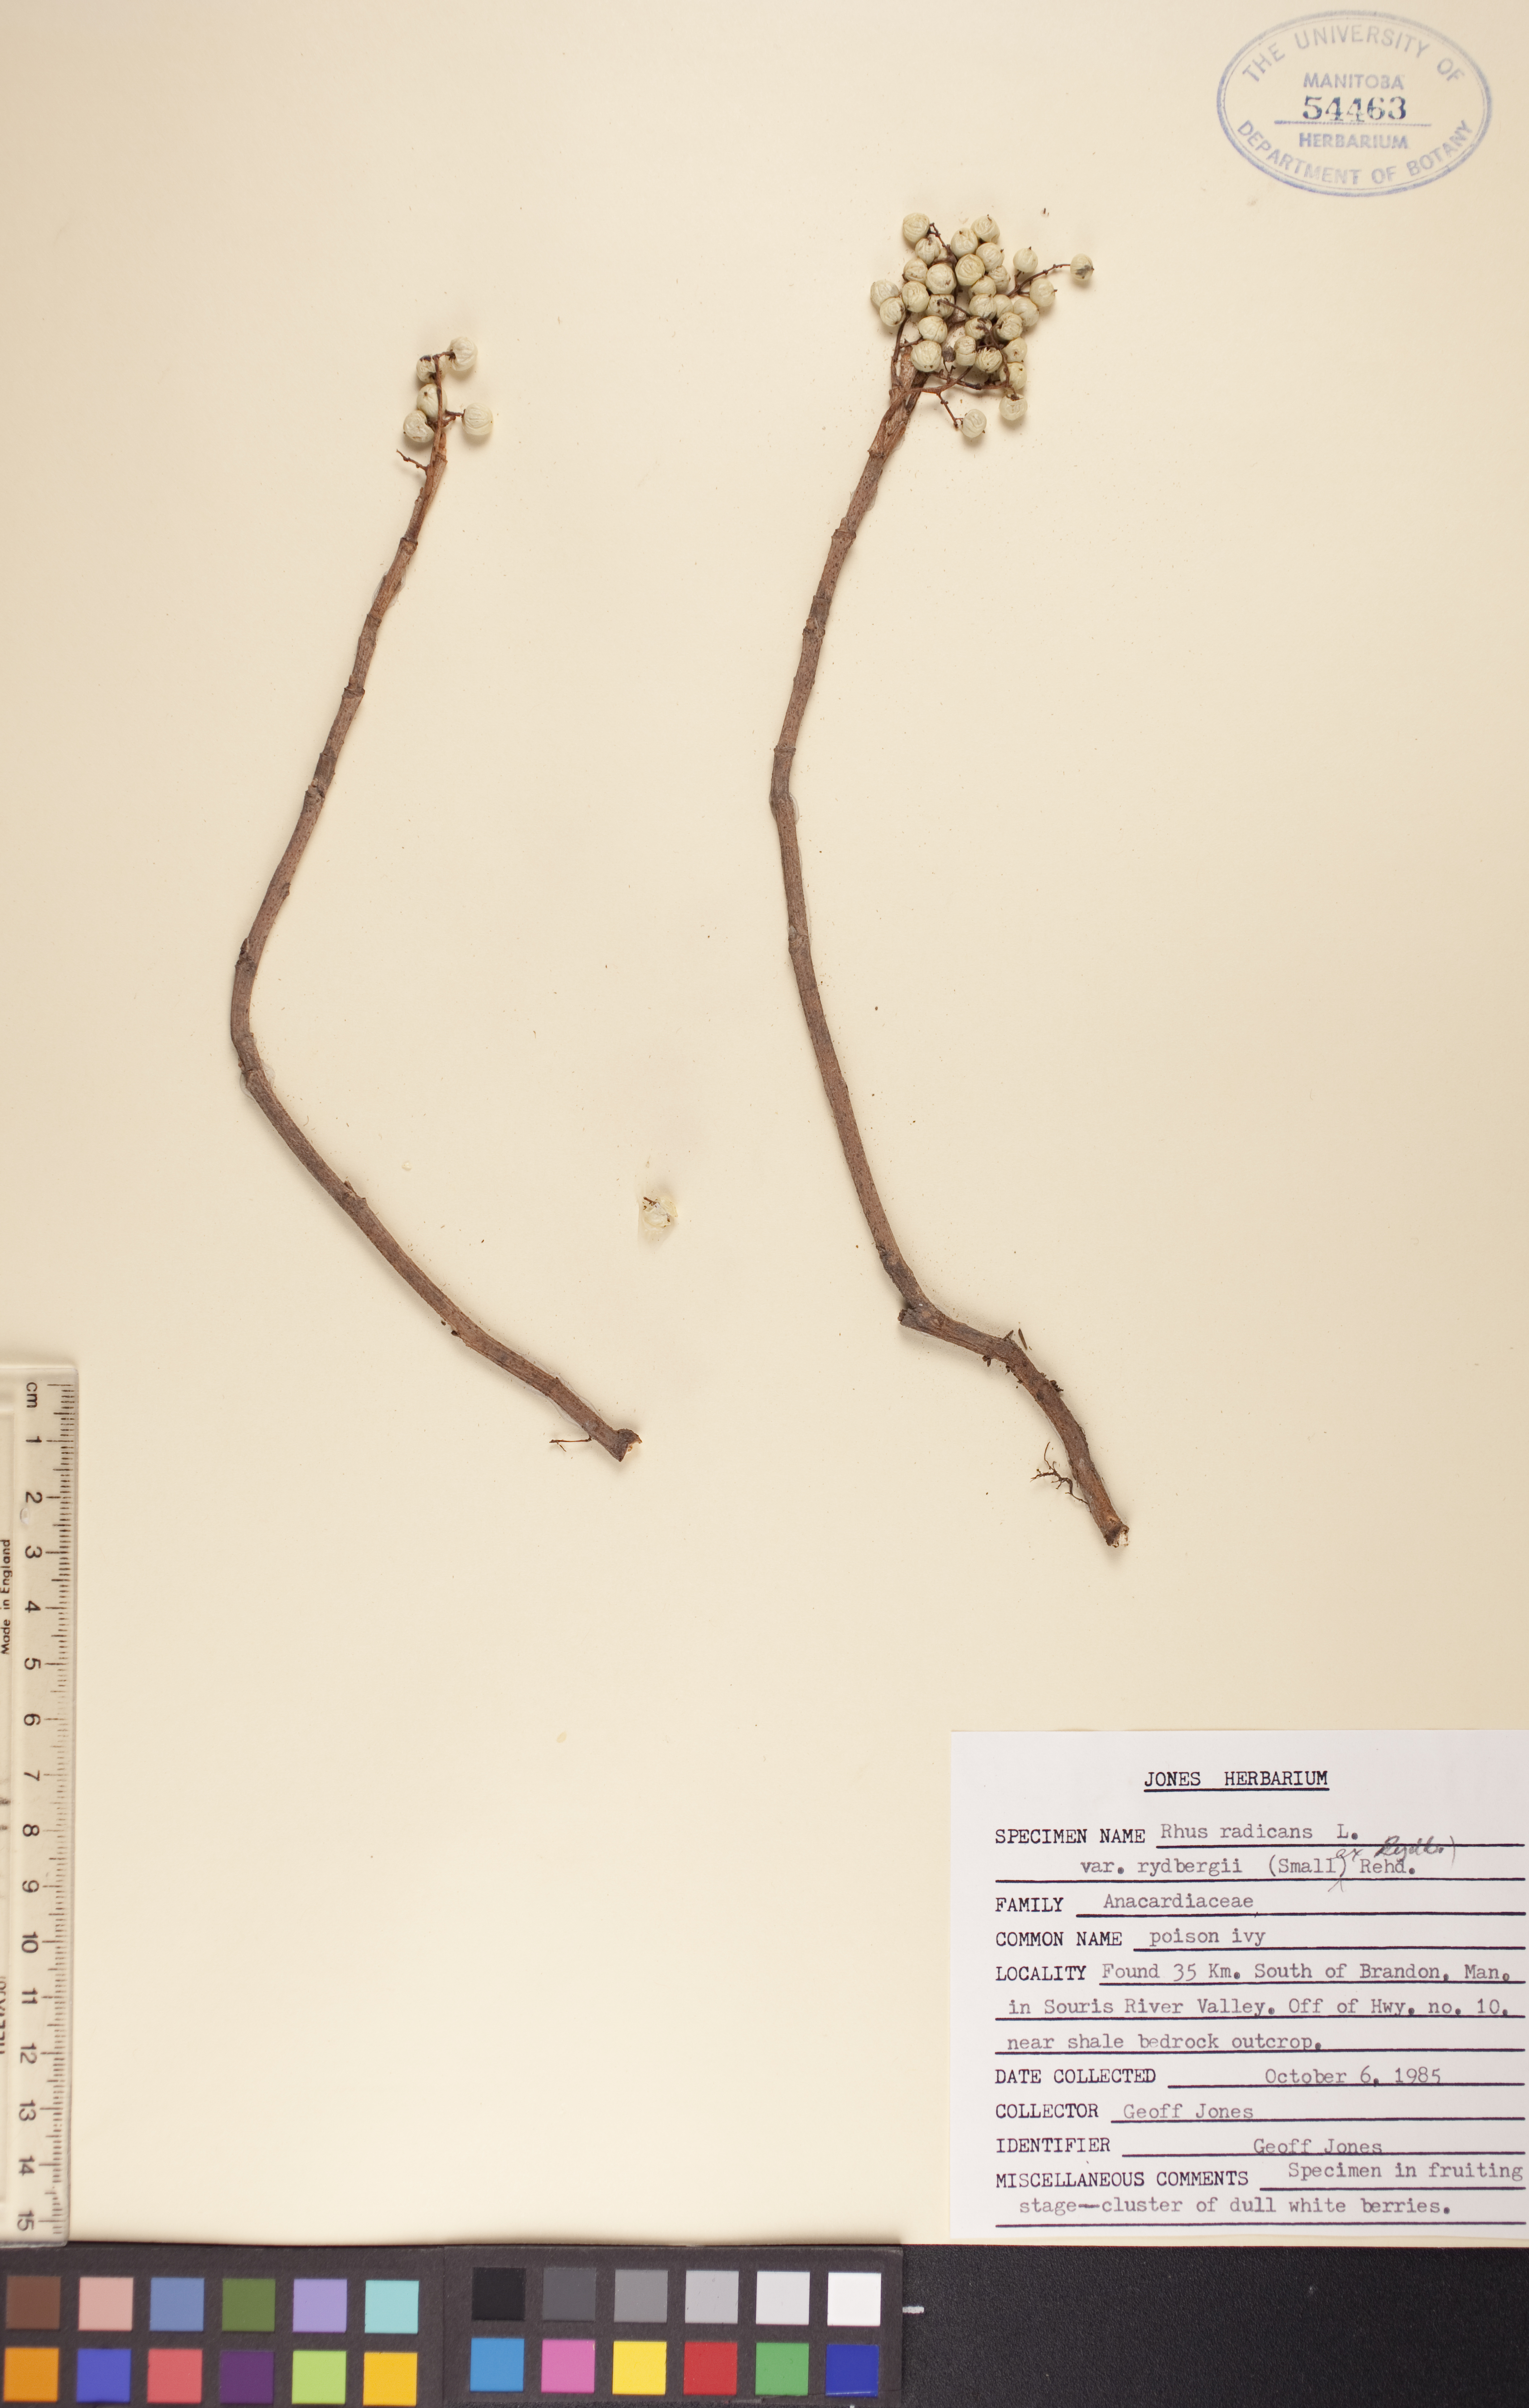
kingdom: Plantae
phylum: Tracheophyta
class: Magnoliopsida
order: Sapindales
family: Anacardiaceae
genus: Toxicodendron
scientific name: Toxicodendron rydbergii
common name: Rydberg's poison-ivy
